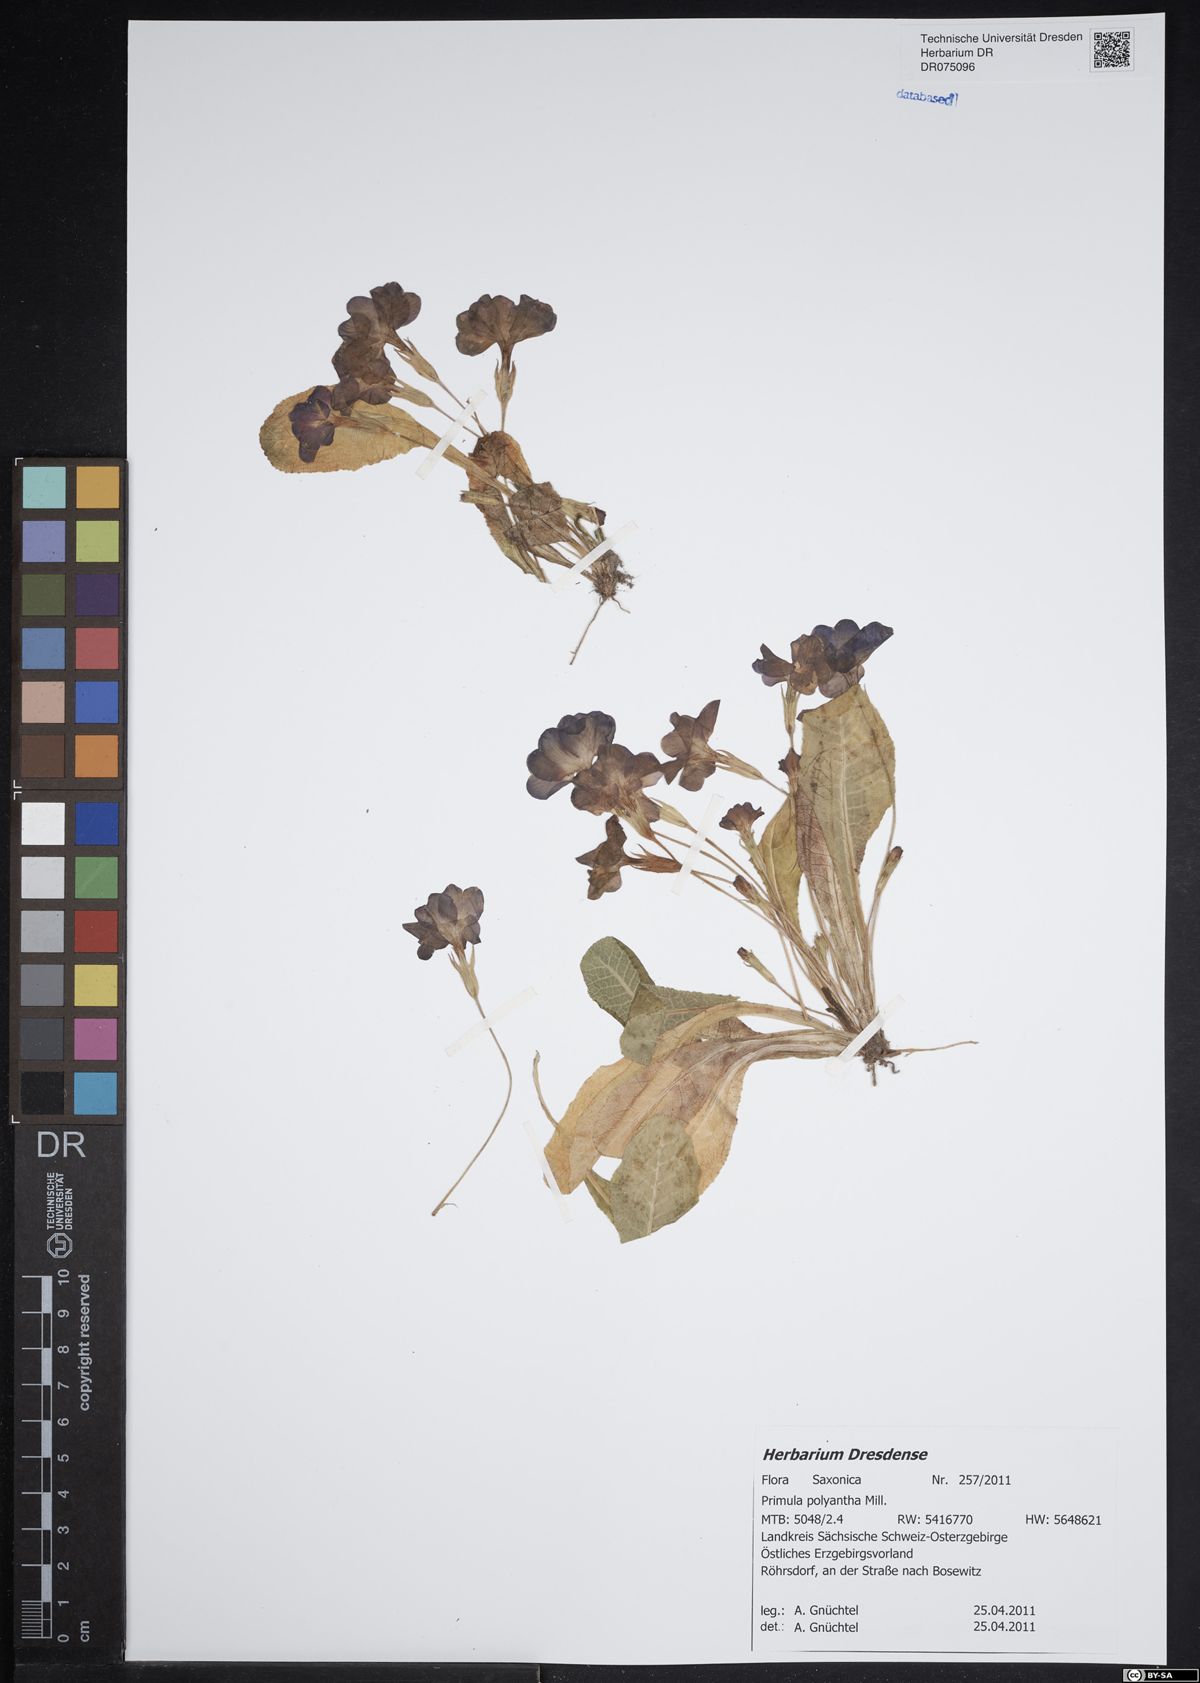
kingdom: Plantae
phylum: Tracheophyta
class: Magnoliopsida
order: Ericales
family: Primulaceae
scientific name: Primulaceae
